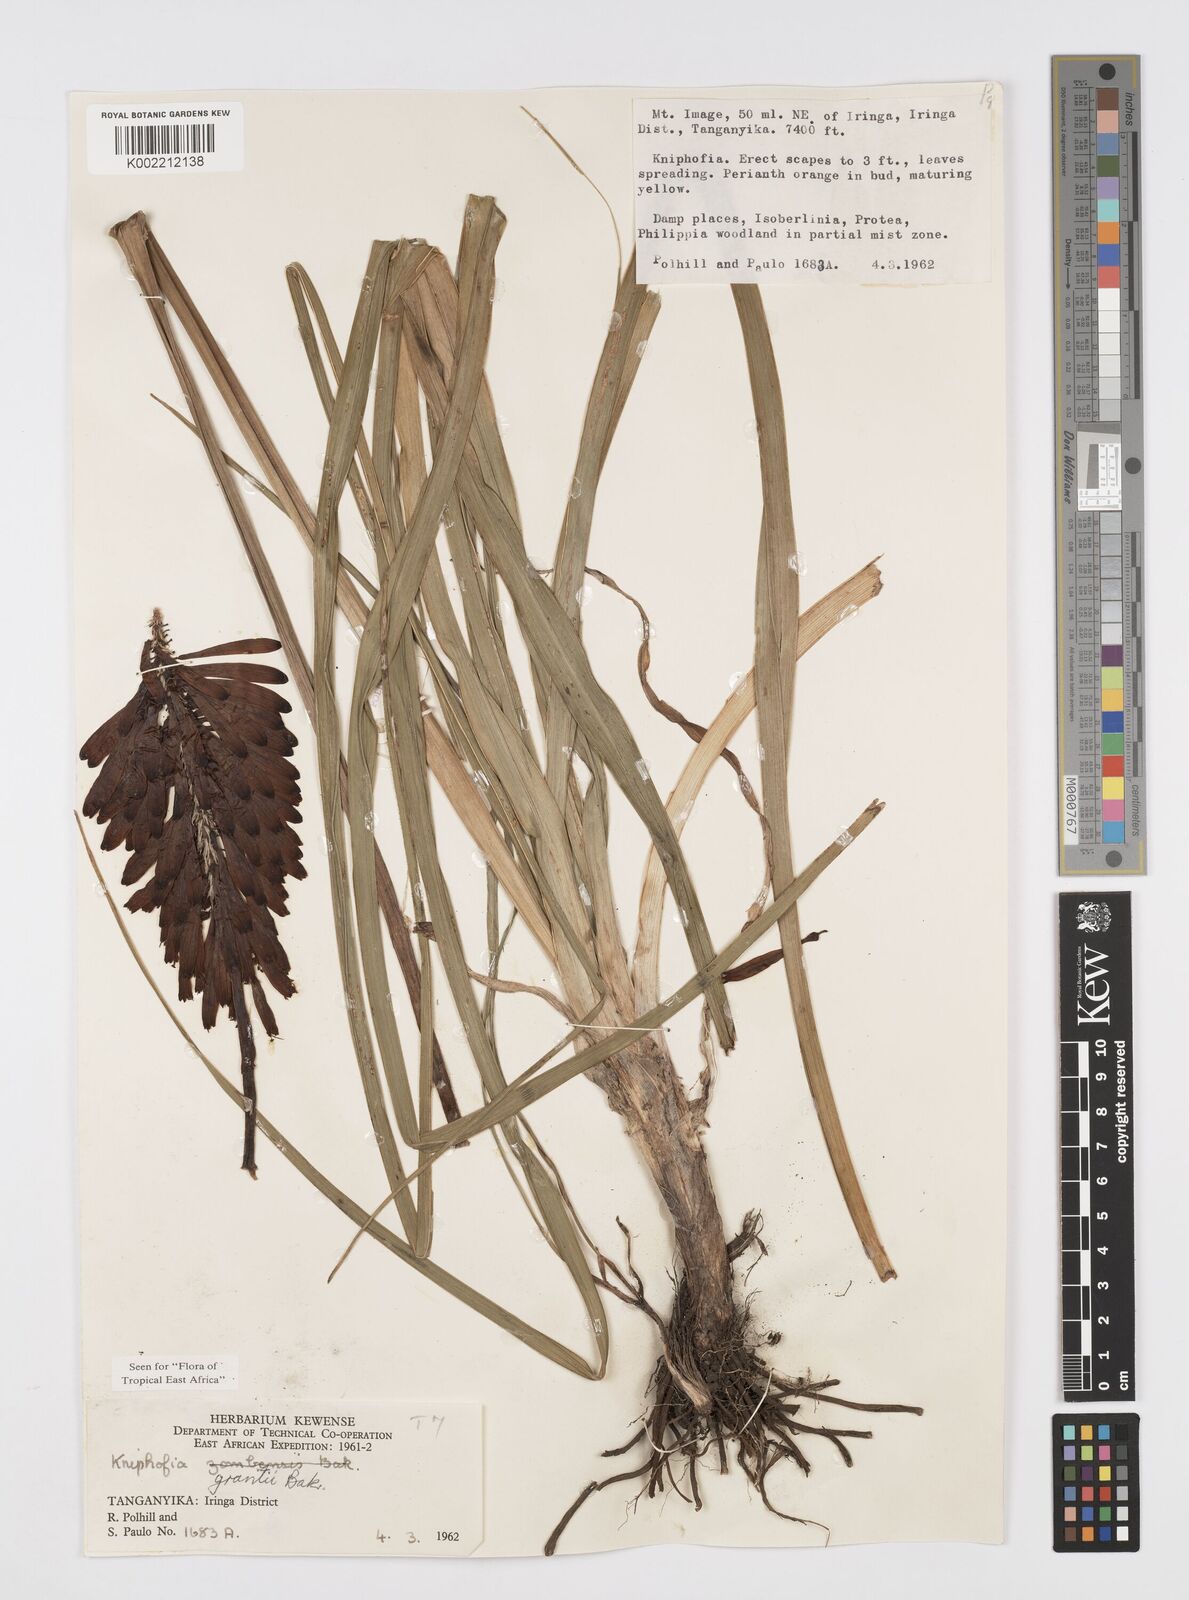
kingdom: Plantae
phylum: Tracheophyta
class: Liliopsida
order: Asparagales
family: Asphodelaceae
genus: Kniphofia
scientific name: Kniphofia grantii
